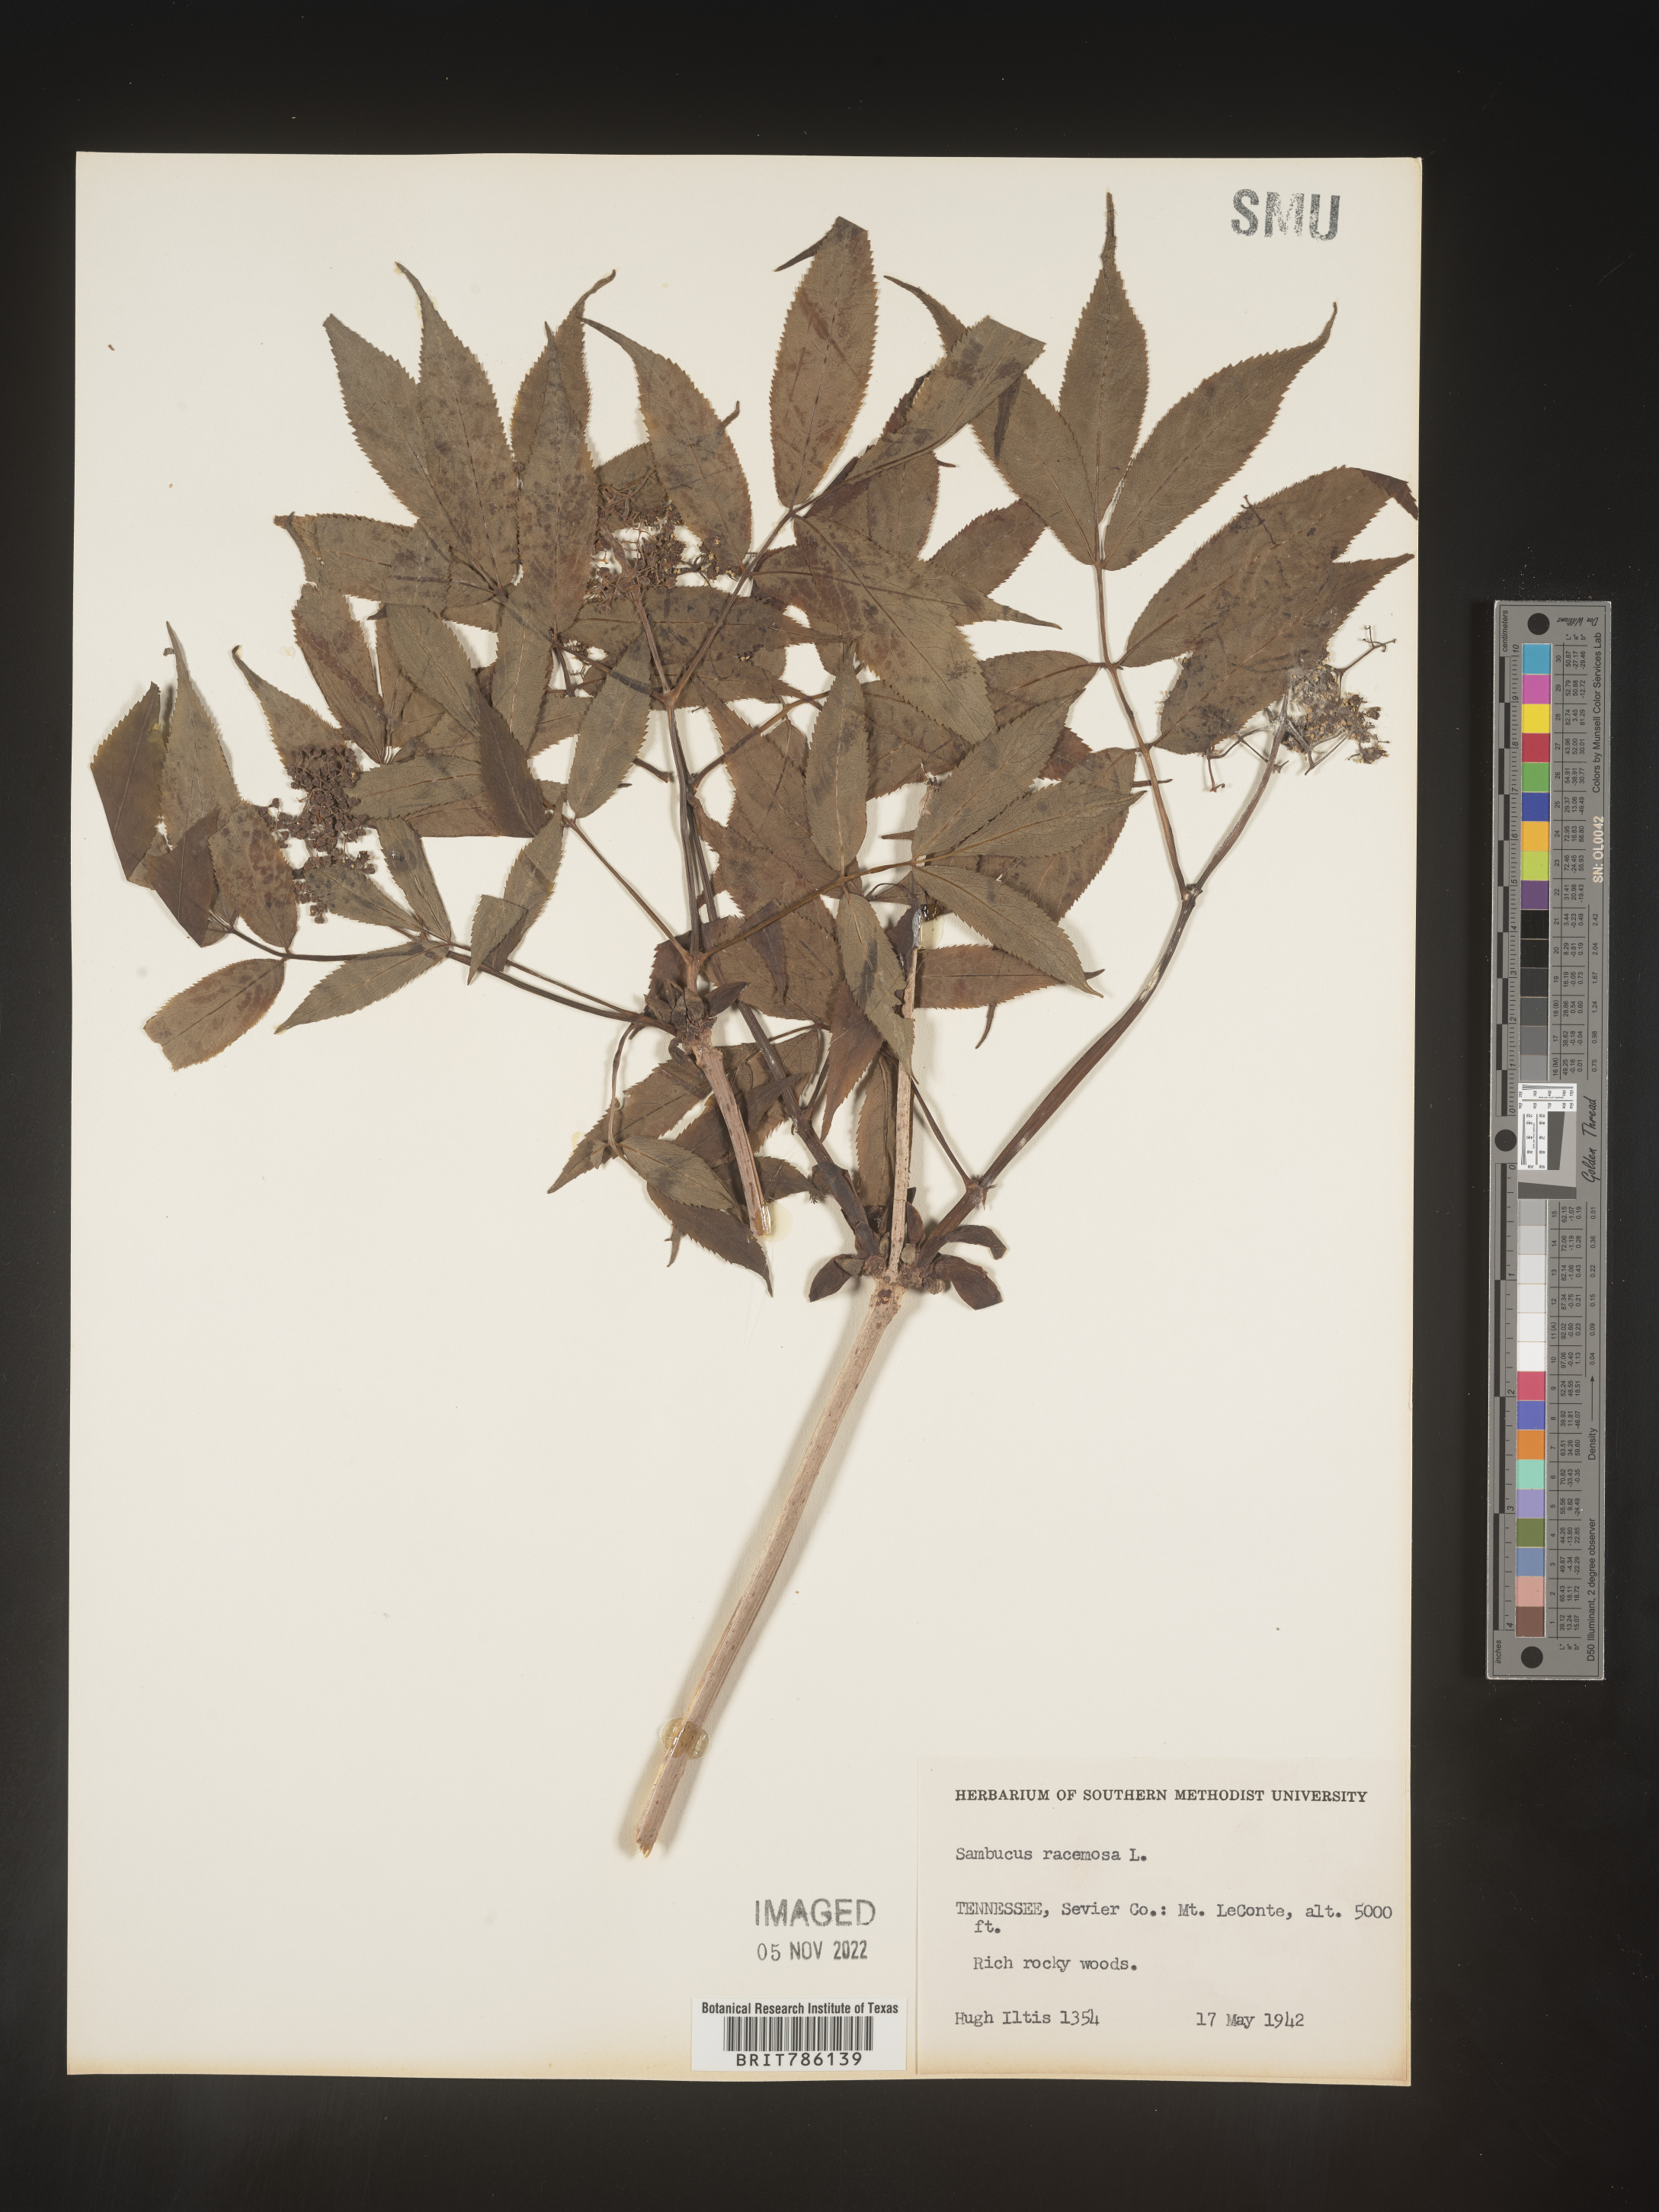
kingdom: Plantae
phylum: Tracheophyta
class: Magnoliopsida
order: Dipsacales
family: Viburnaceae
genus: Sambucus
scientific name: Sambucus
